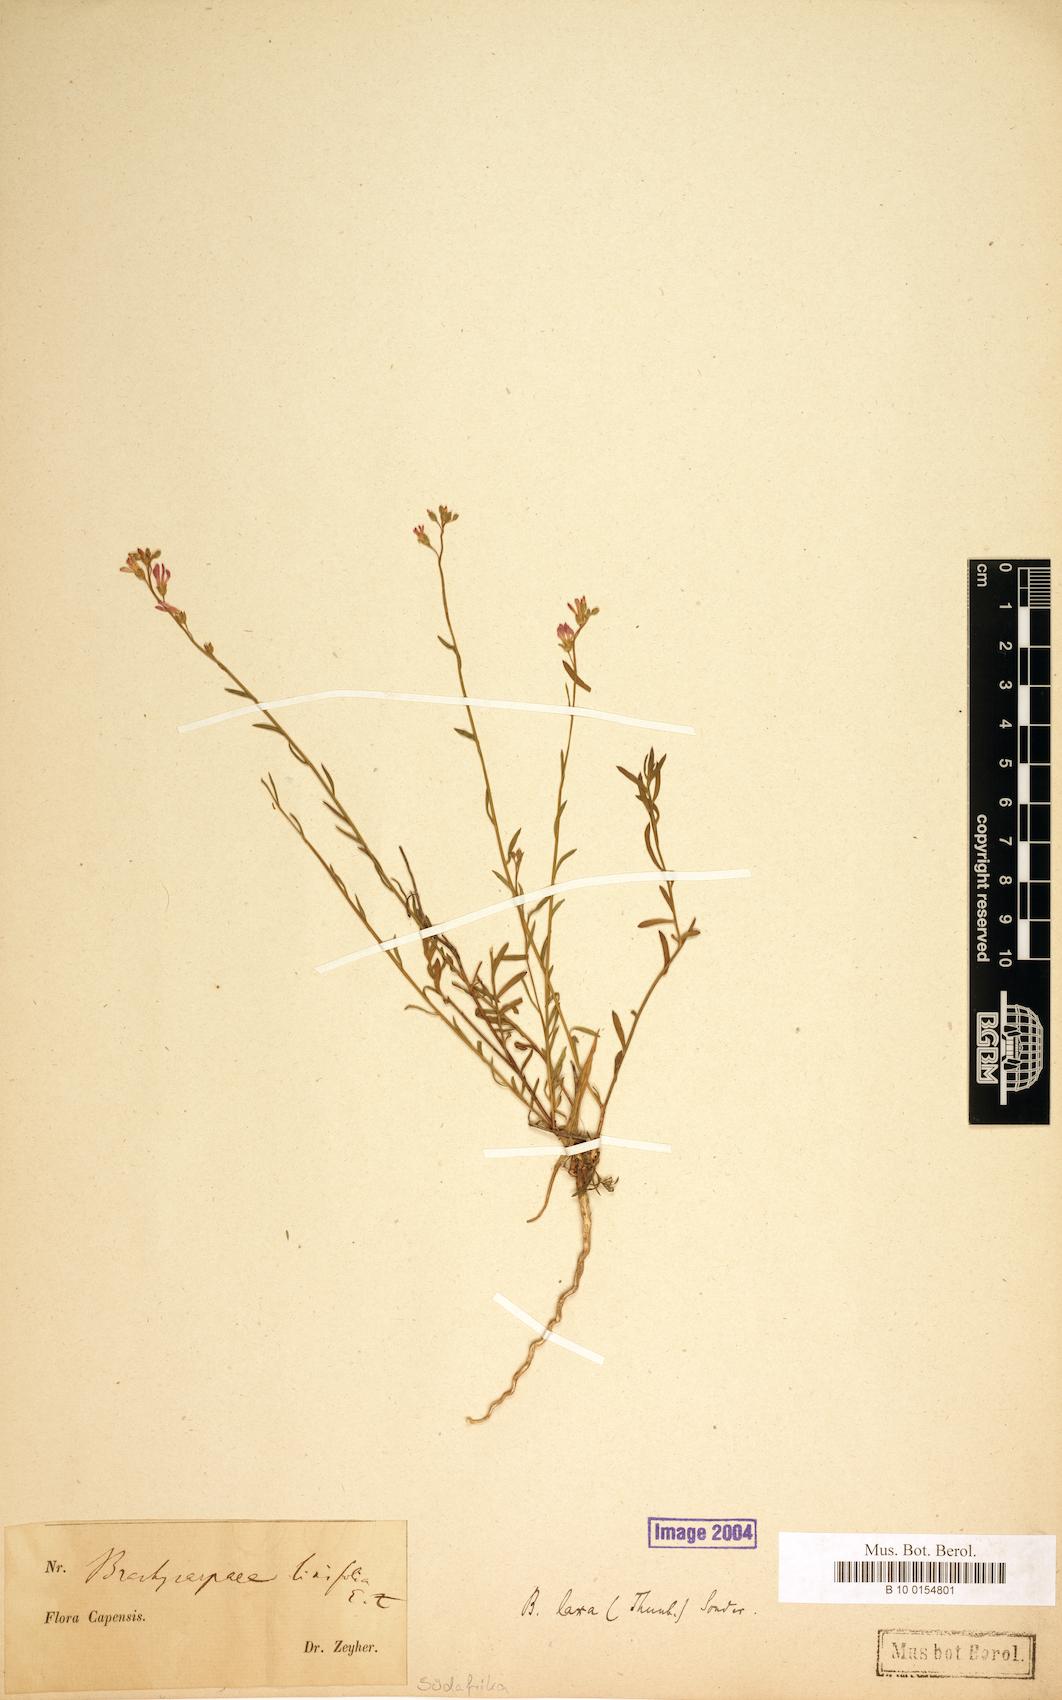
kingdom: Plantae
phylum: Tracheophyta
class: Magnoliopsida
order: Brassicales
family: Brassicaceae
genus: Heliophila
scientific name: Heliophila juncea
